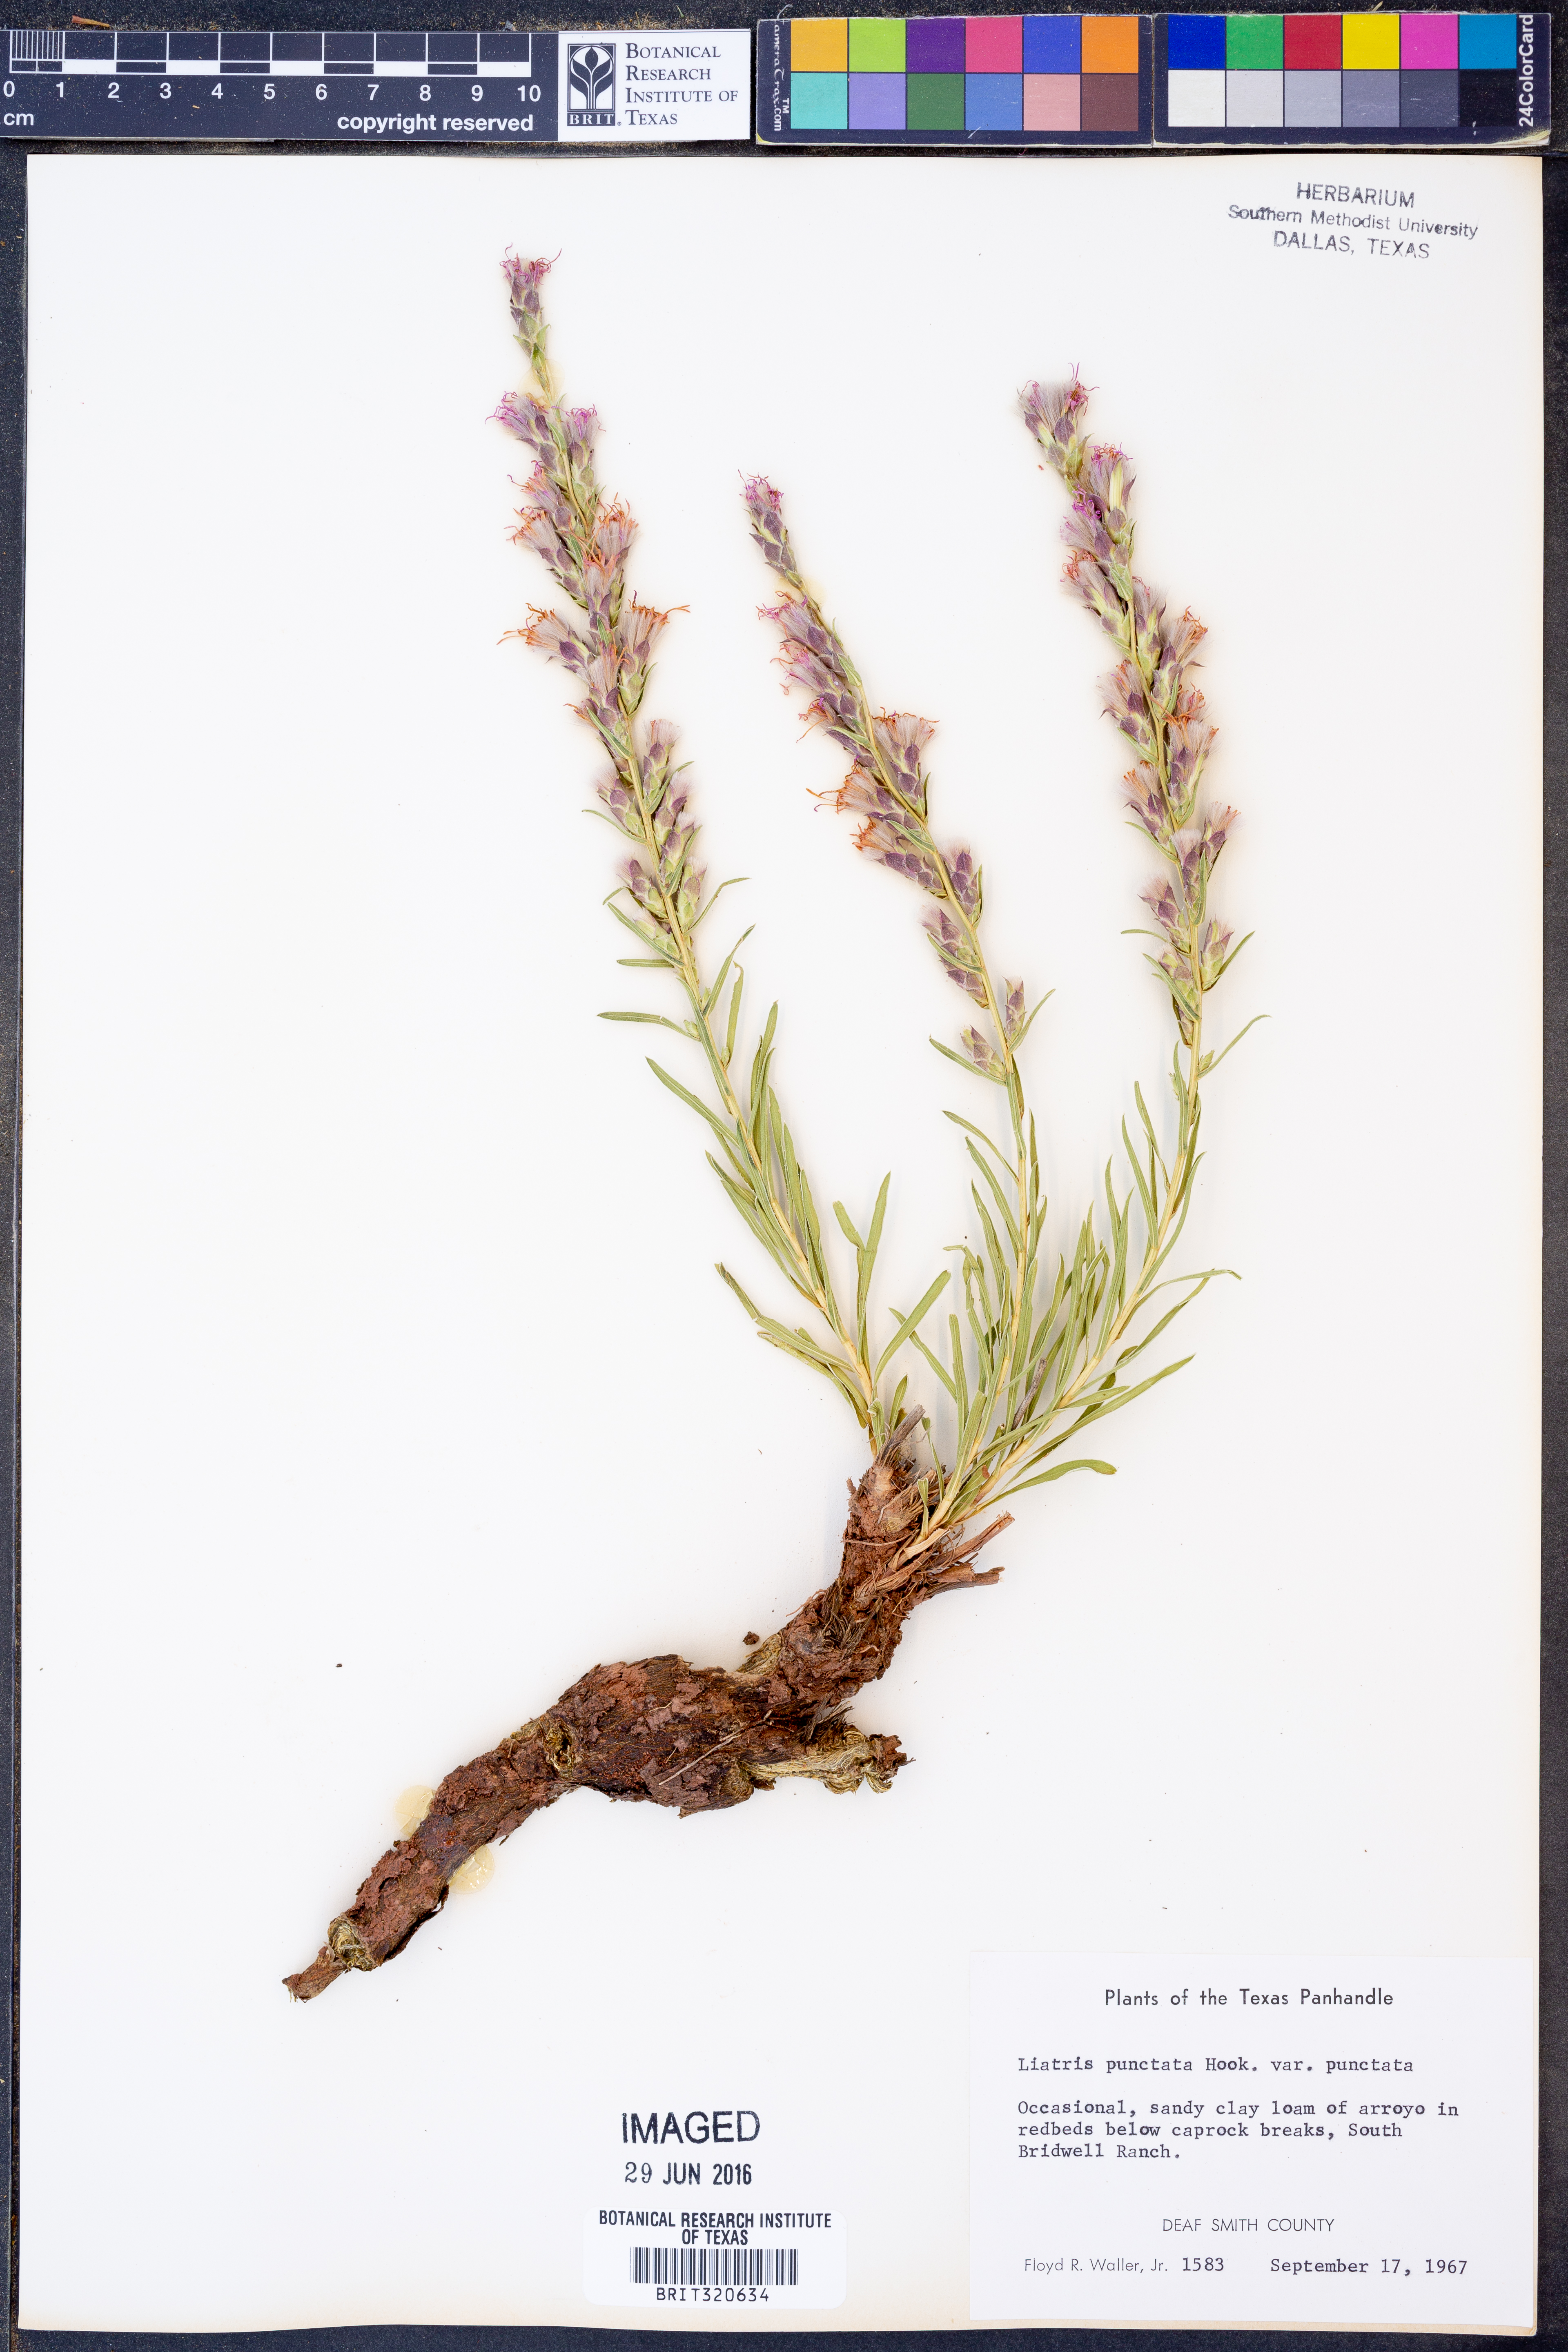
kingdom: Plantae
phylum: Tracheophyta
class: Magnoliopsida
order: Asterales
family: Asteraceae
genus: Liatris
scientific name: Liatris punctata
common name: Dotted gayfeather
